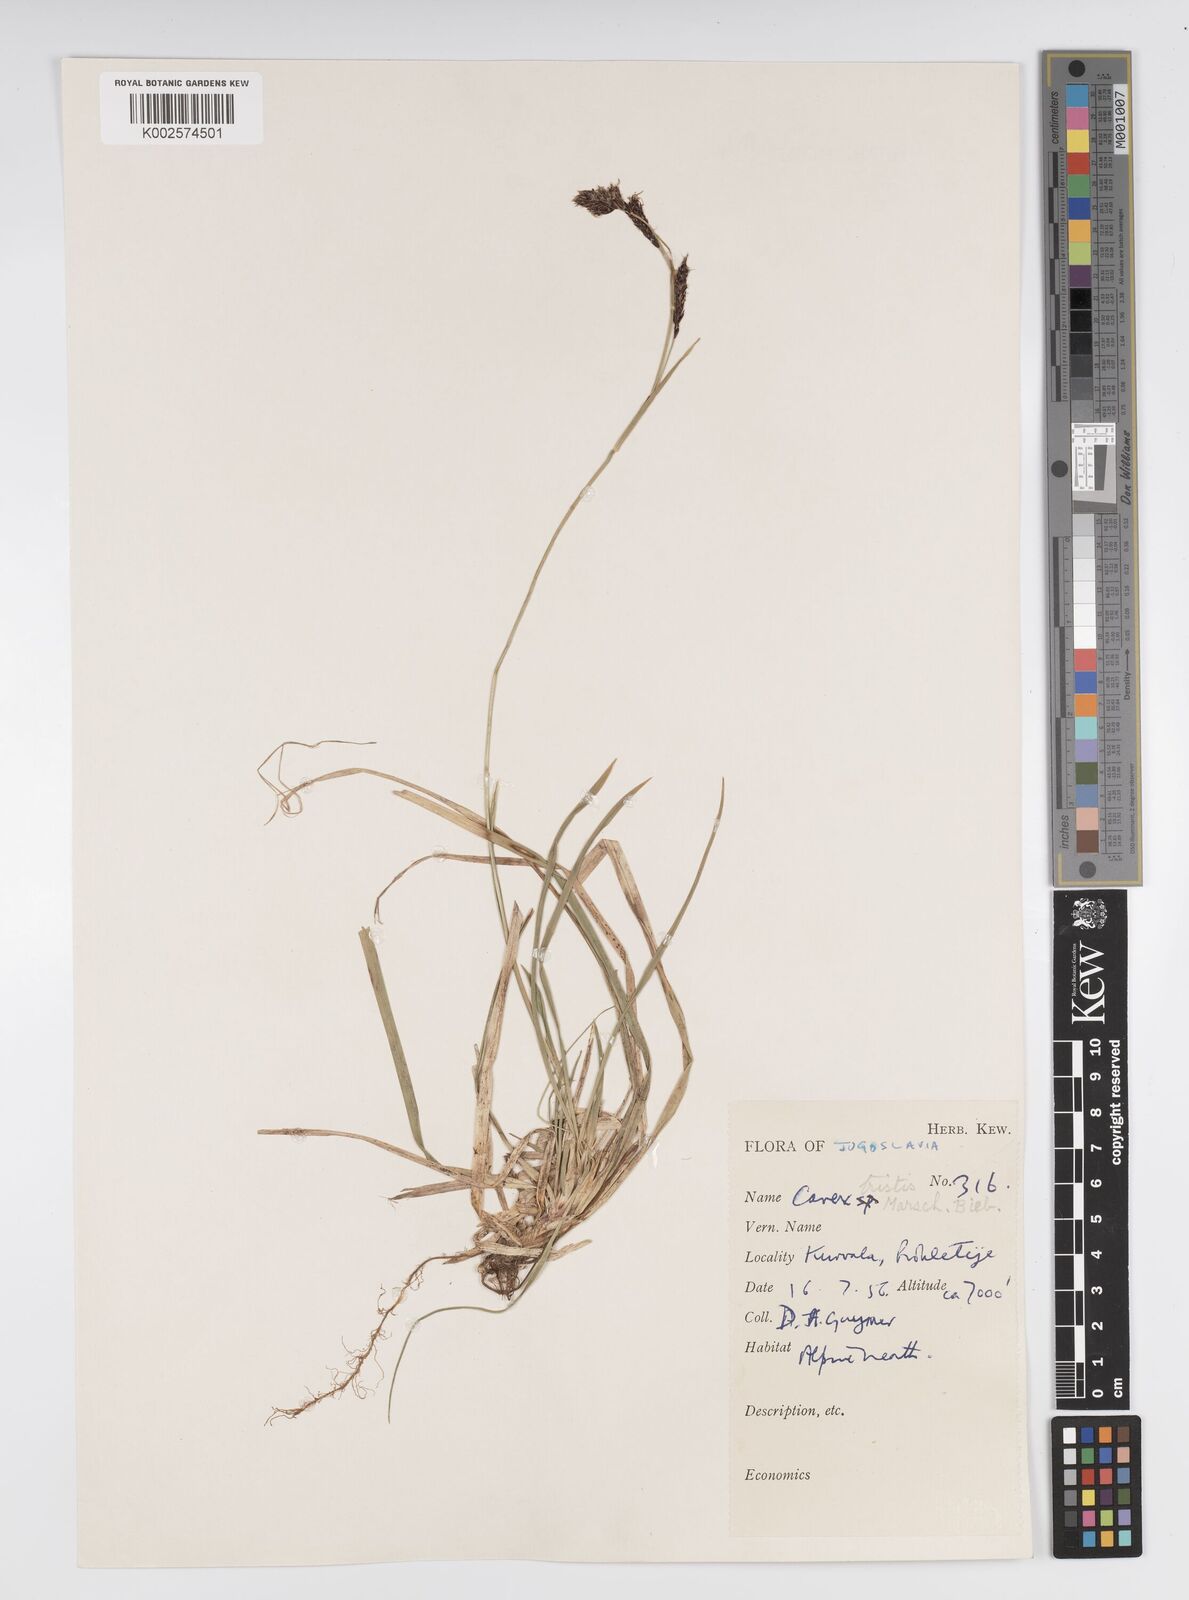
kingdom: Plantae
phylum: Tracheophyta
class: Liliopsida
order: Poales
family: Cyperaceae
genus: Carex
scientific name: Carex sempervirens
